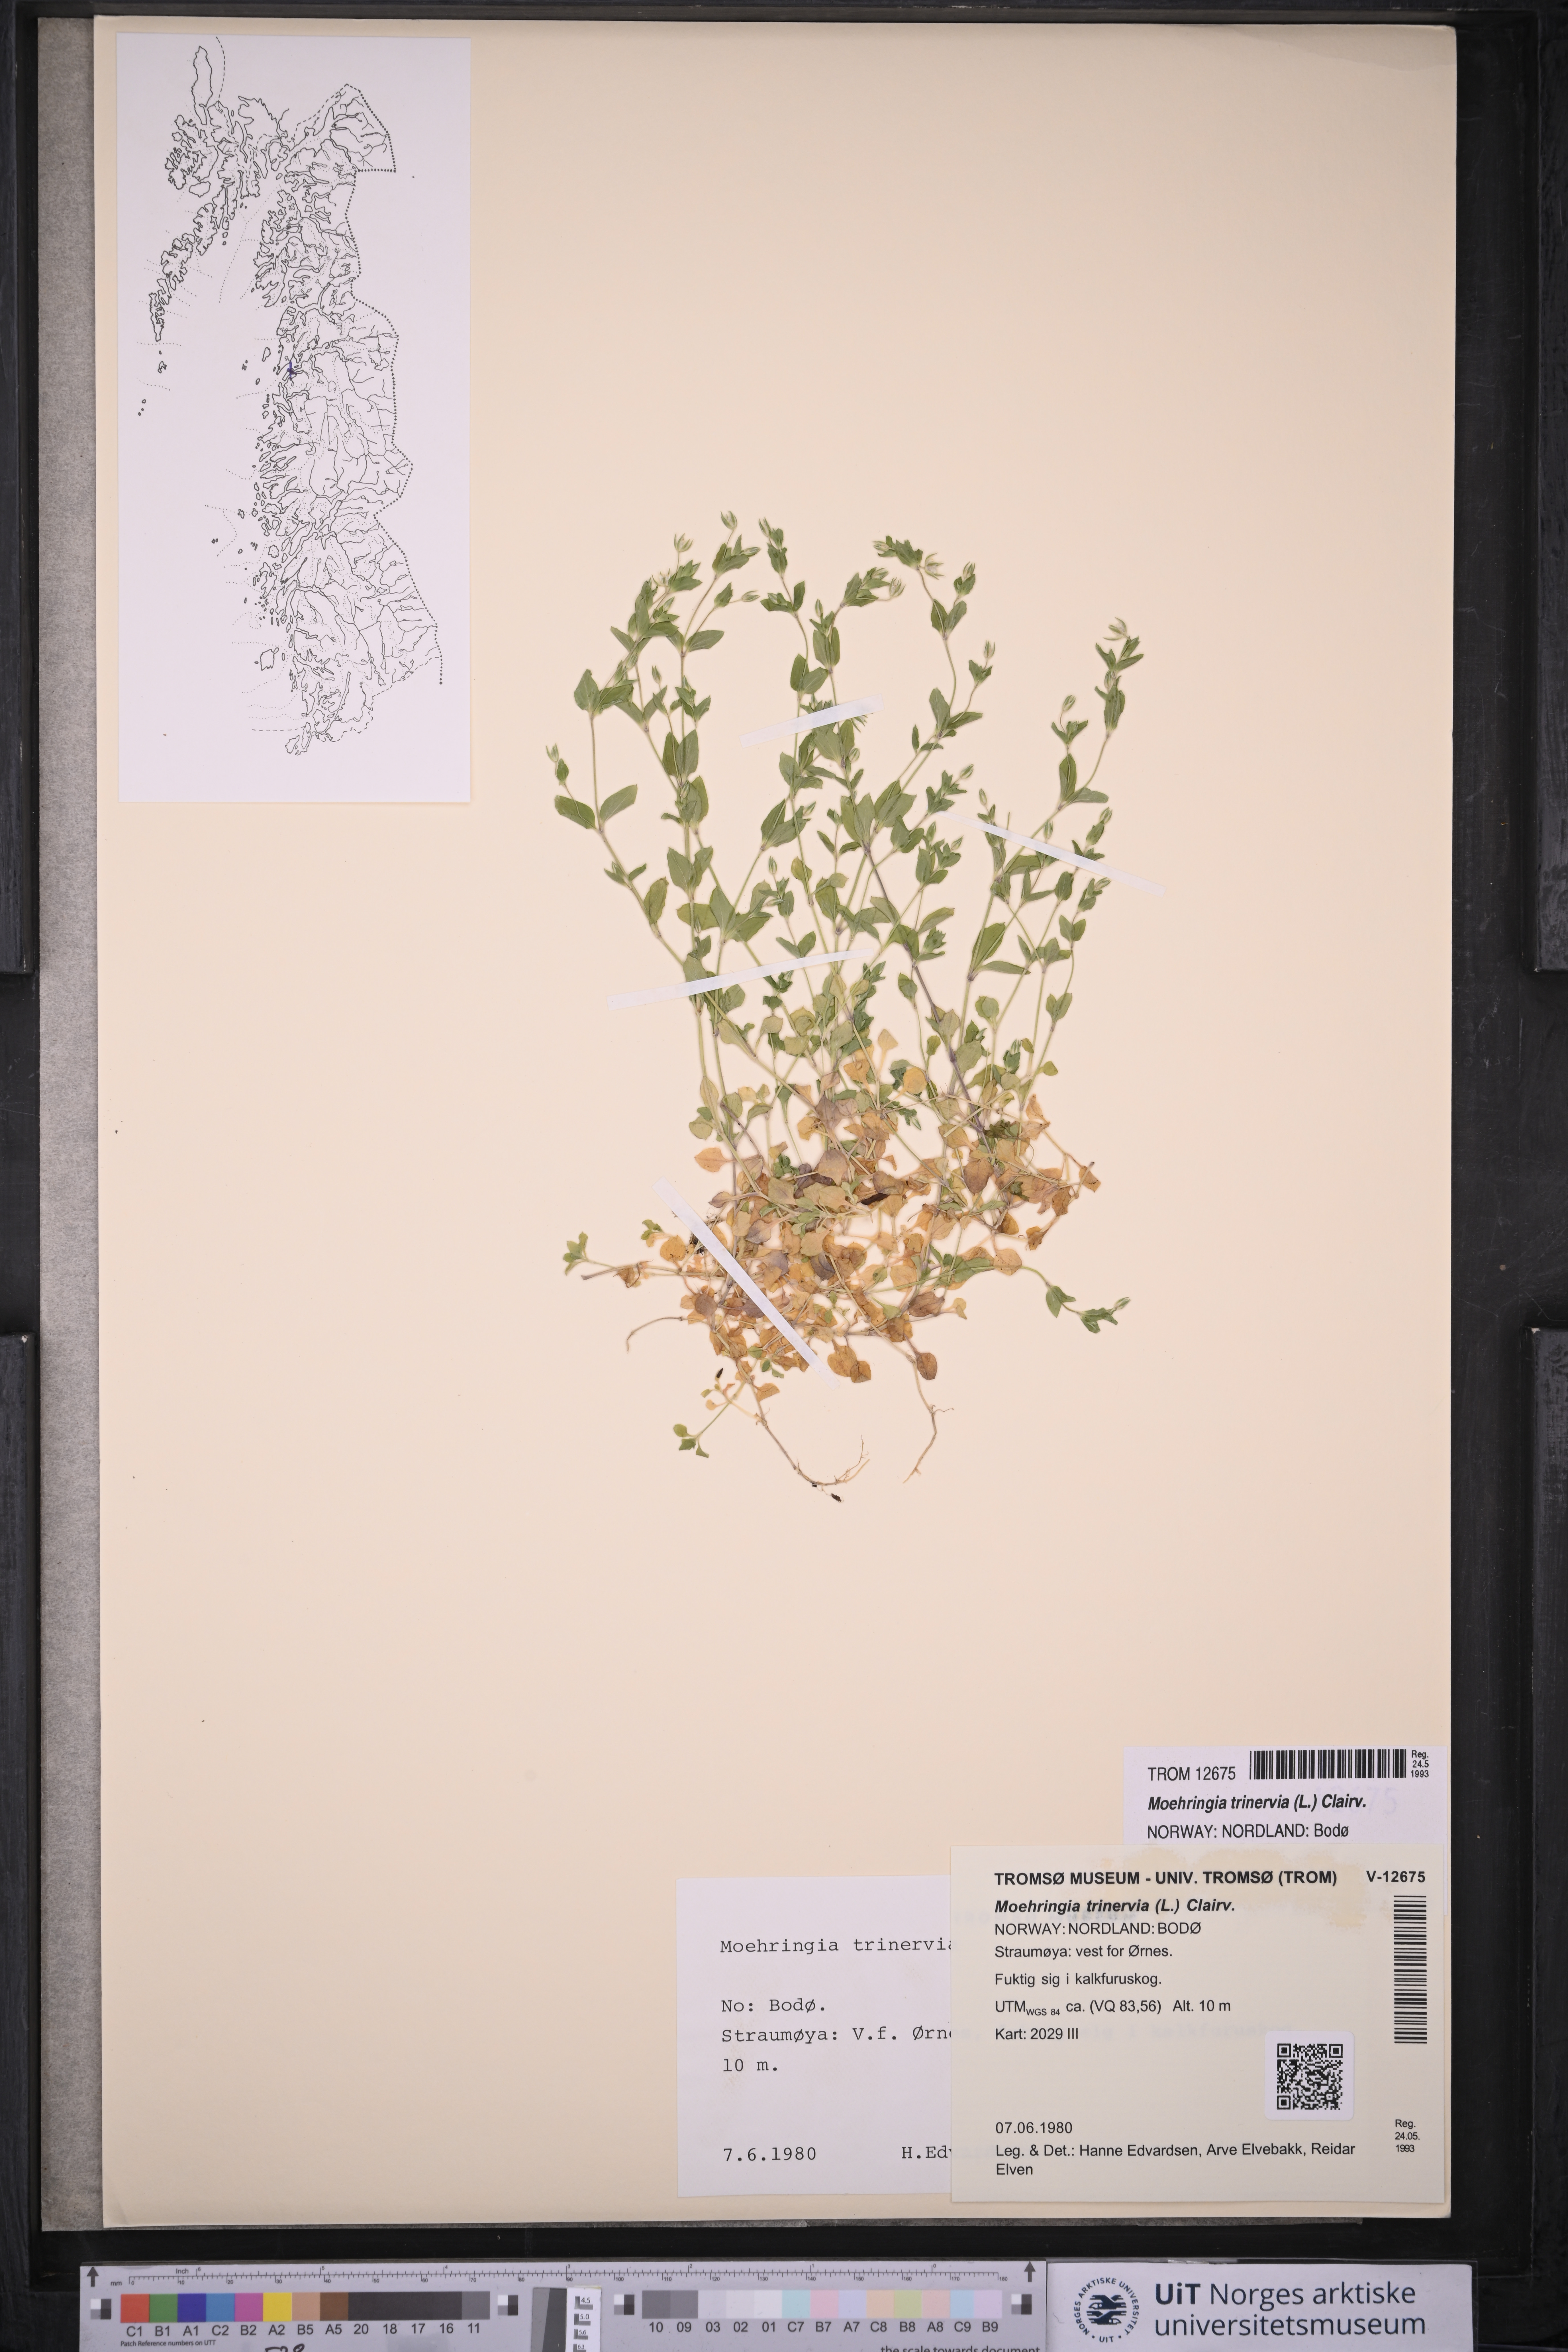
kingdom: Plantae
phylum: Tracheophyta
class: Magnoliopsida
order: Caryophyllales
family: Caryophyllaceae
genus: Moehringia
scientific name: Moehringia trinervia
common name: Three-nerved sandwort
